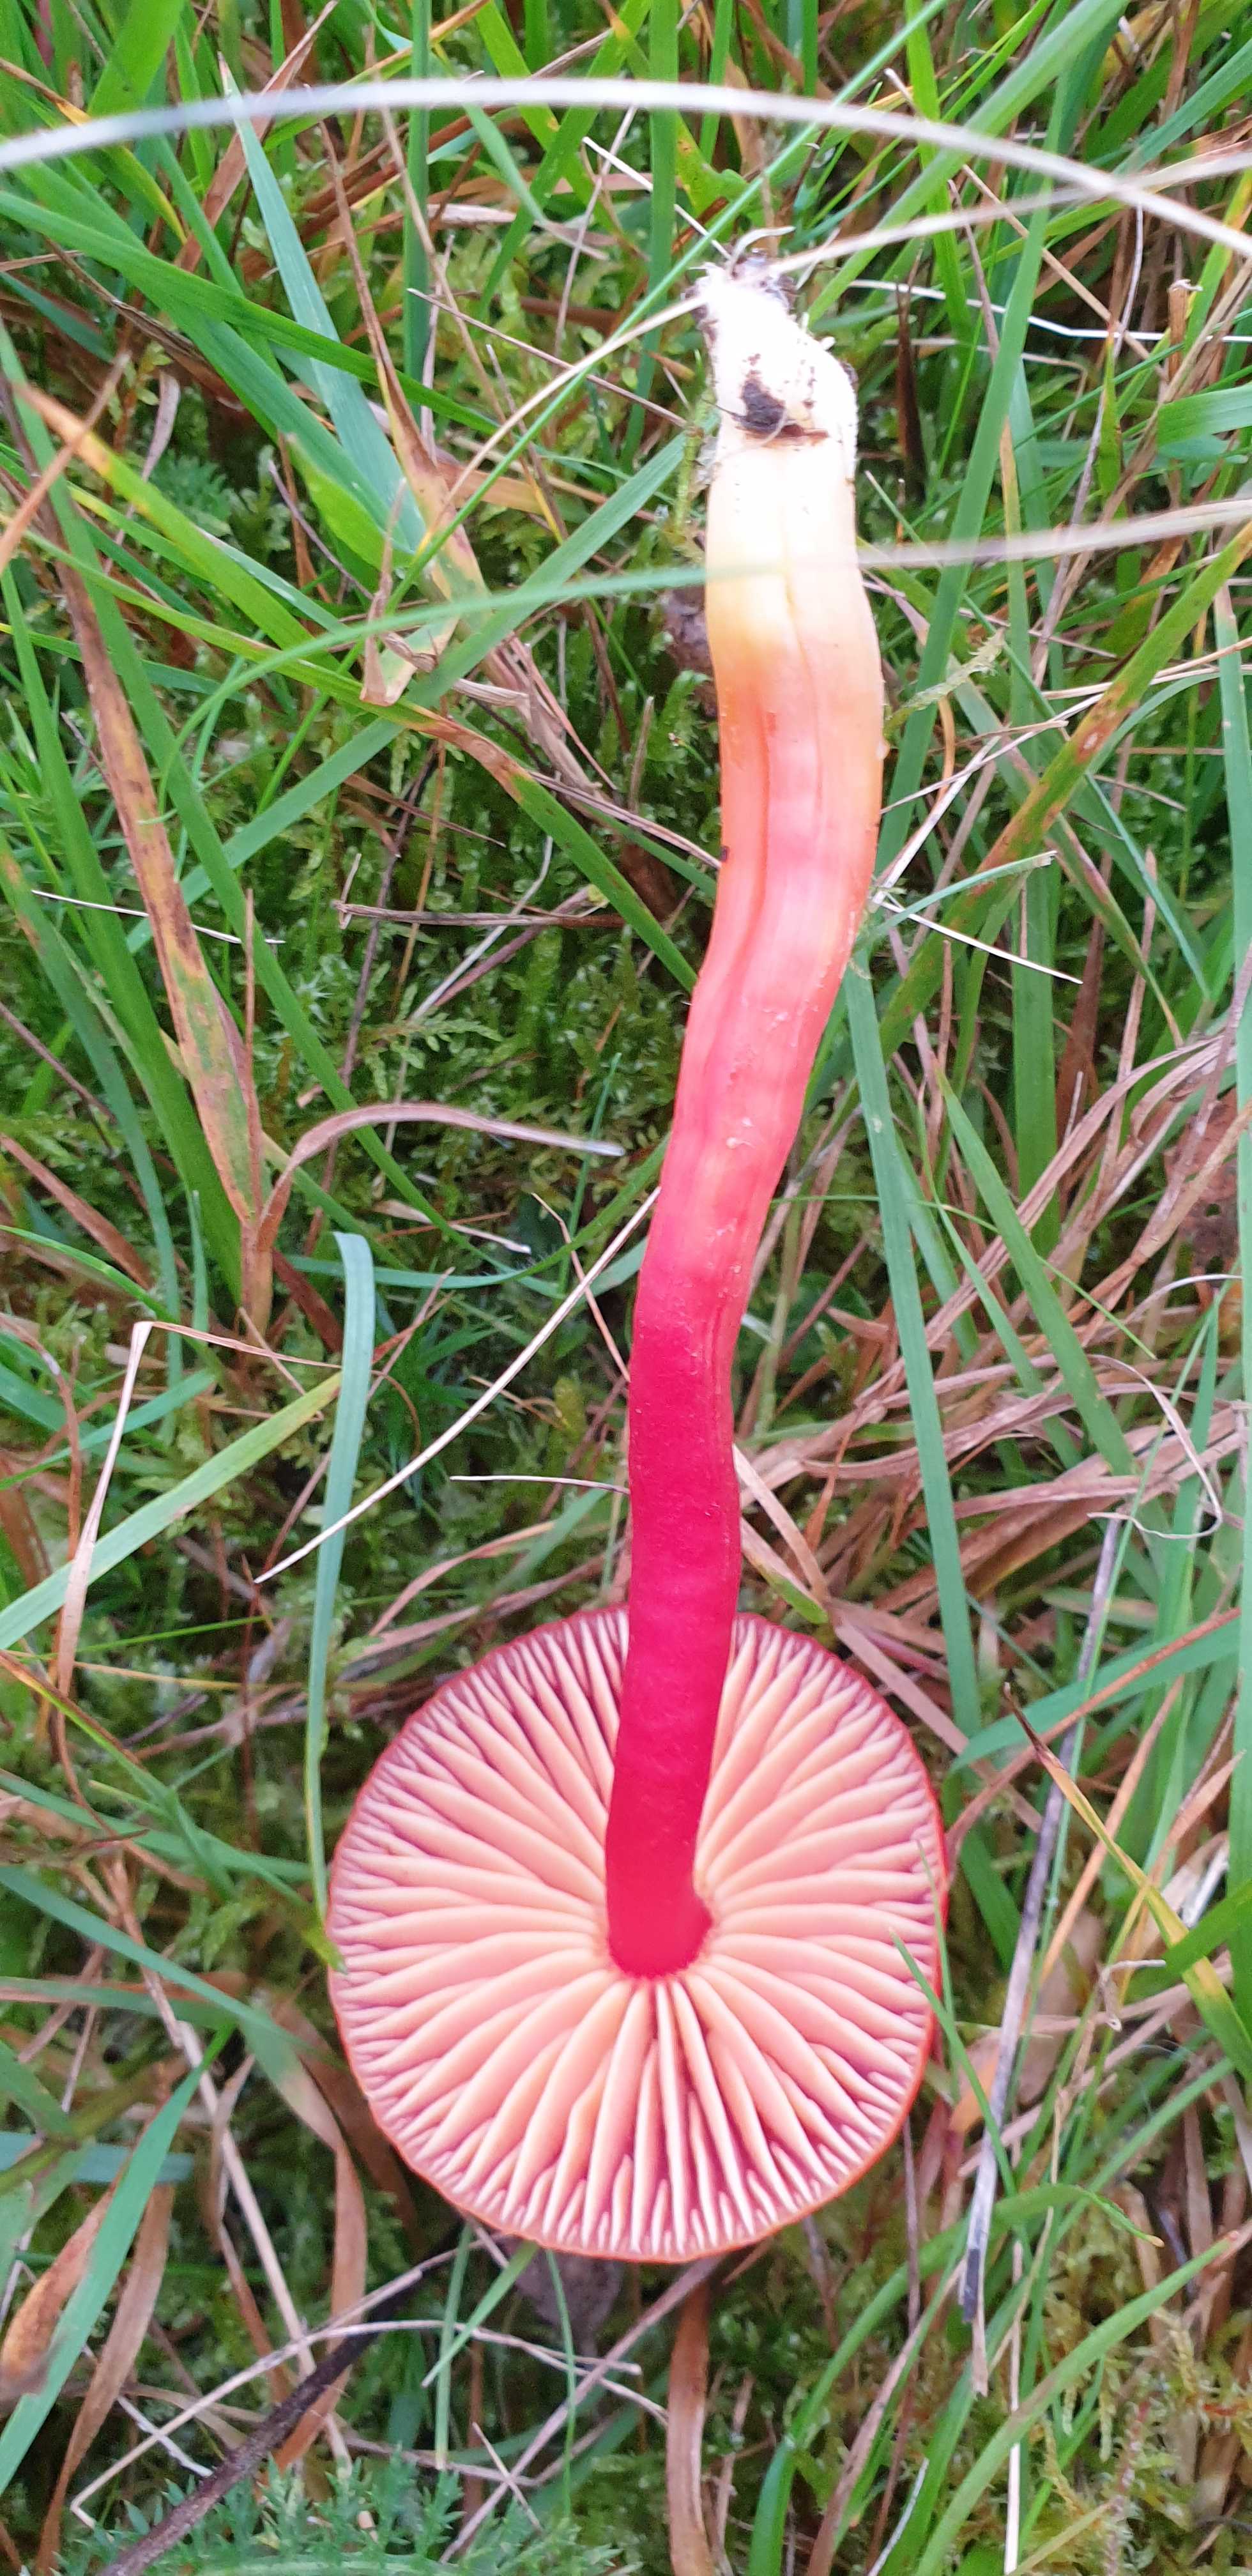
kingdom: Fungi
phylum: Basidiomycota
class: Agaricomycetes
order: Agaricales
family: Hygrophoraceae
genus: Hygrocybe
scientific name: Hygrocybe coccinea
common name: cinnober-vokshat
